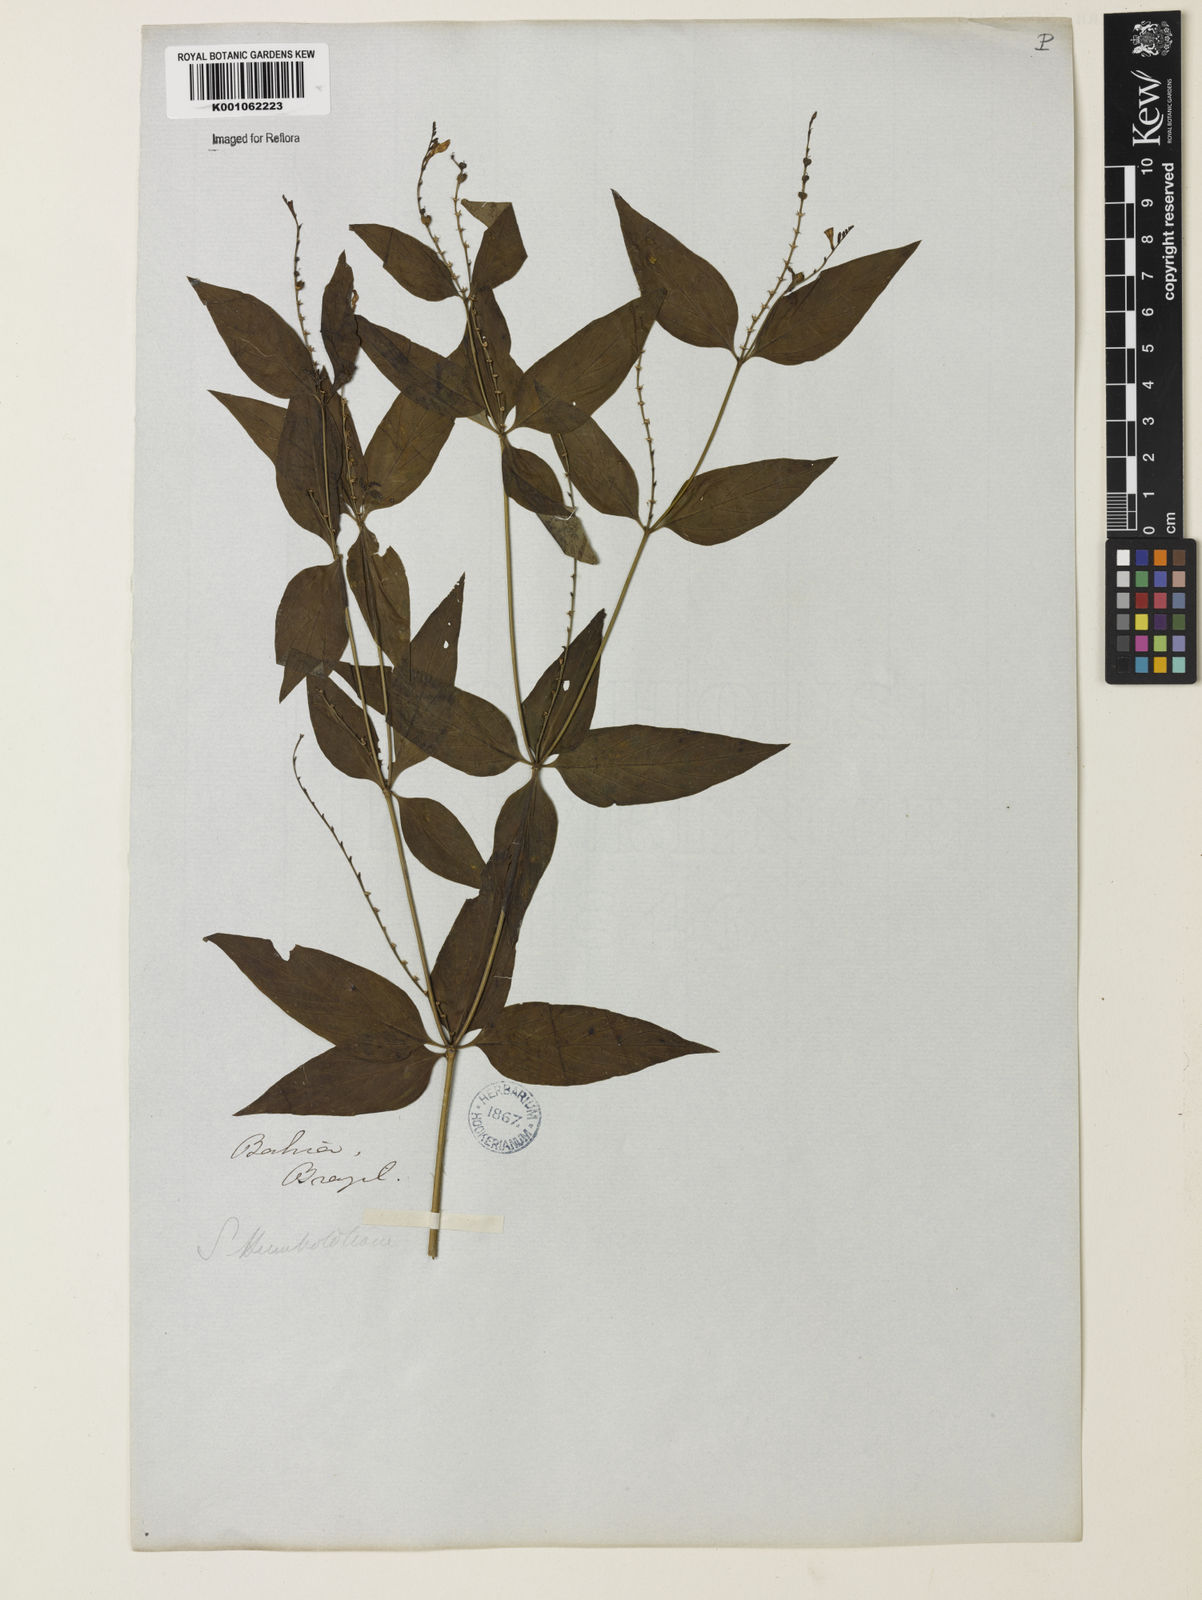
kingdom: Plantae
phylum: Tracheophyta
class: Magnoliopsida
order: Gentianales
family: Loganiaceae
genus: Spigelia
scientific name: Spigelia flemmingiana
